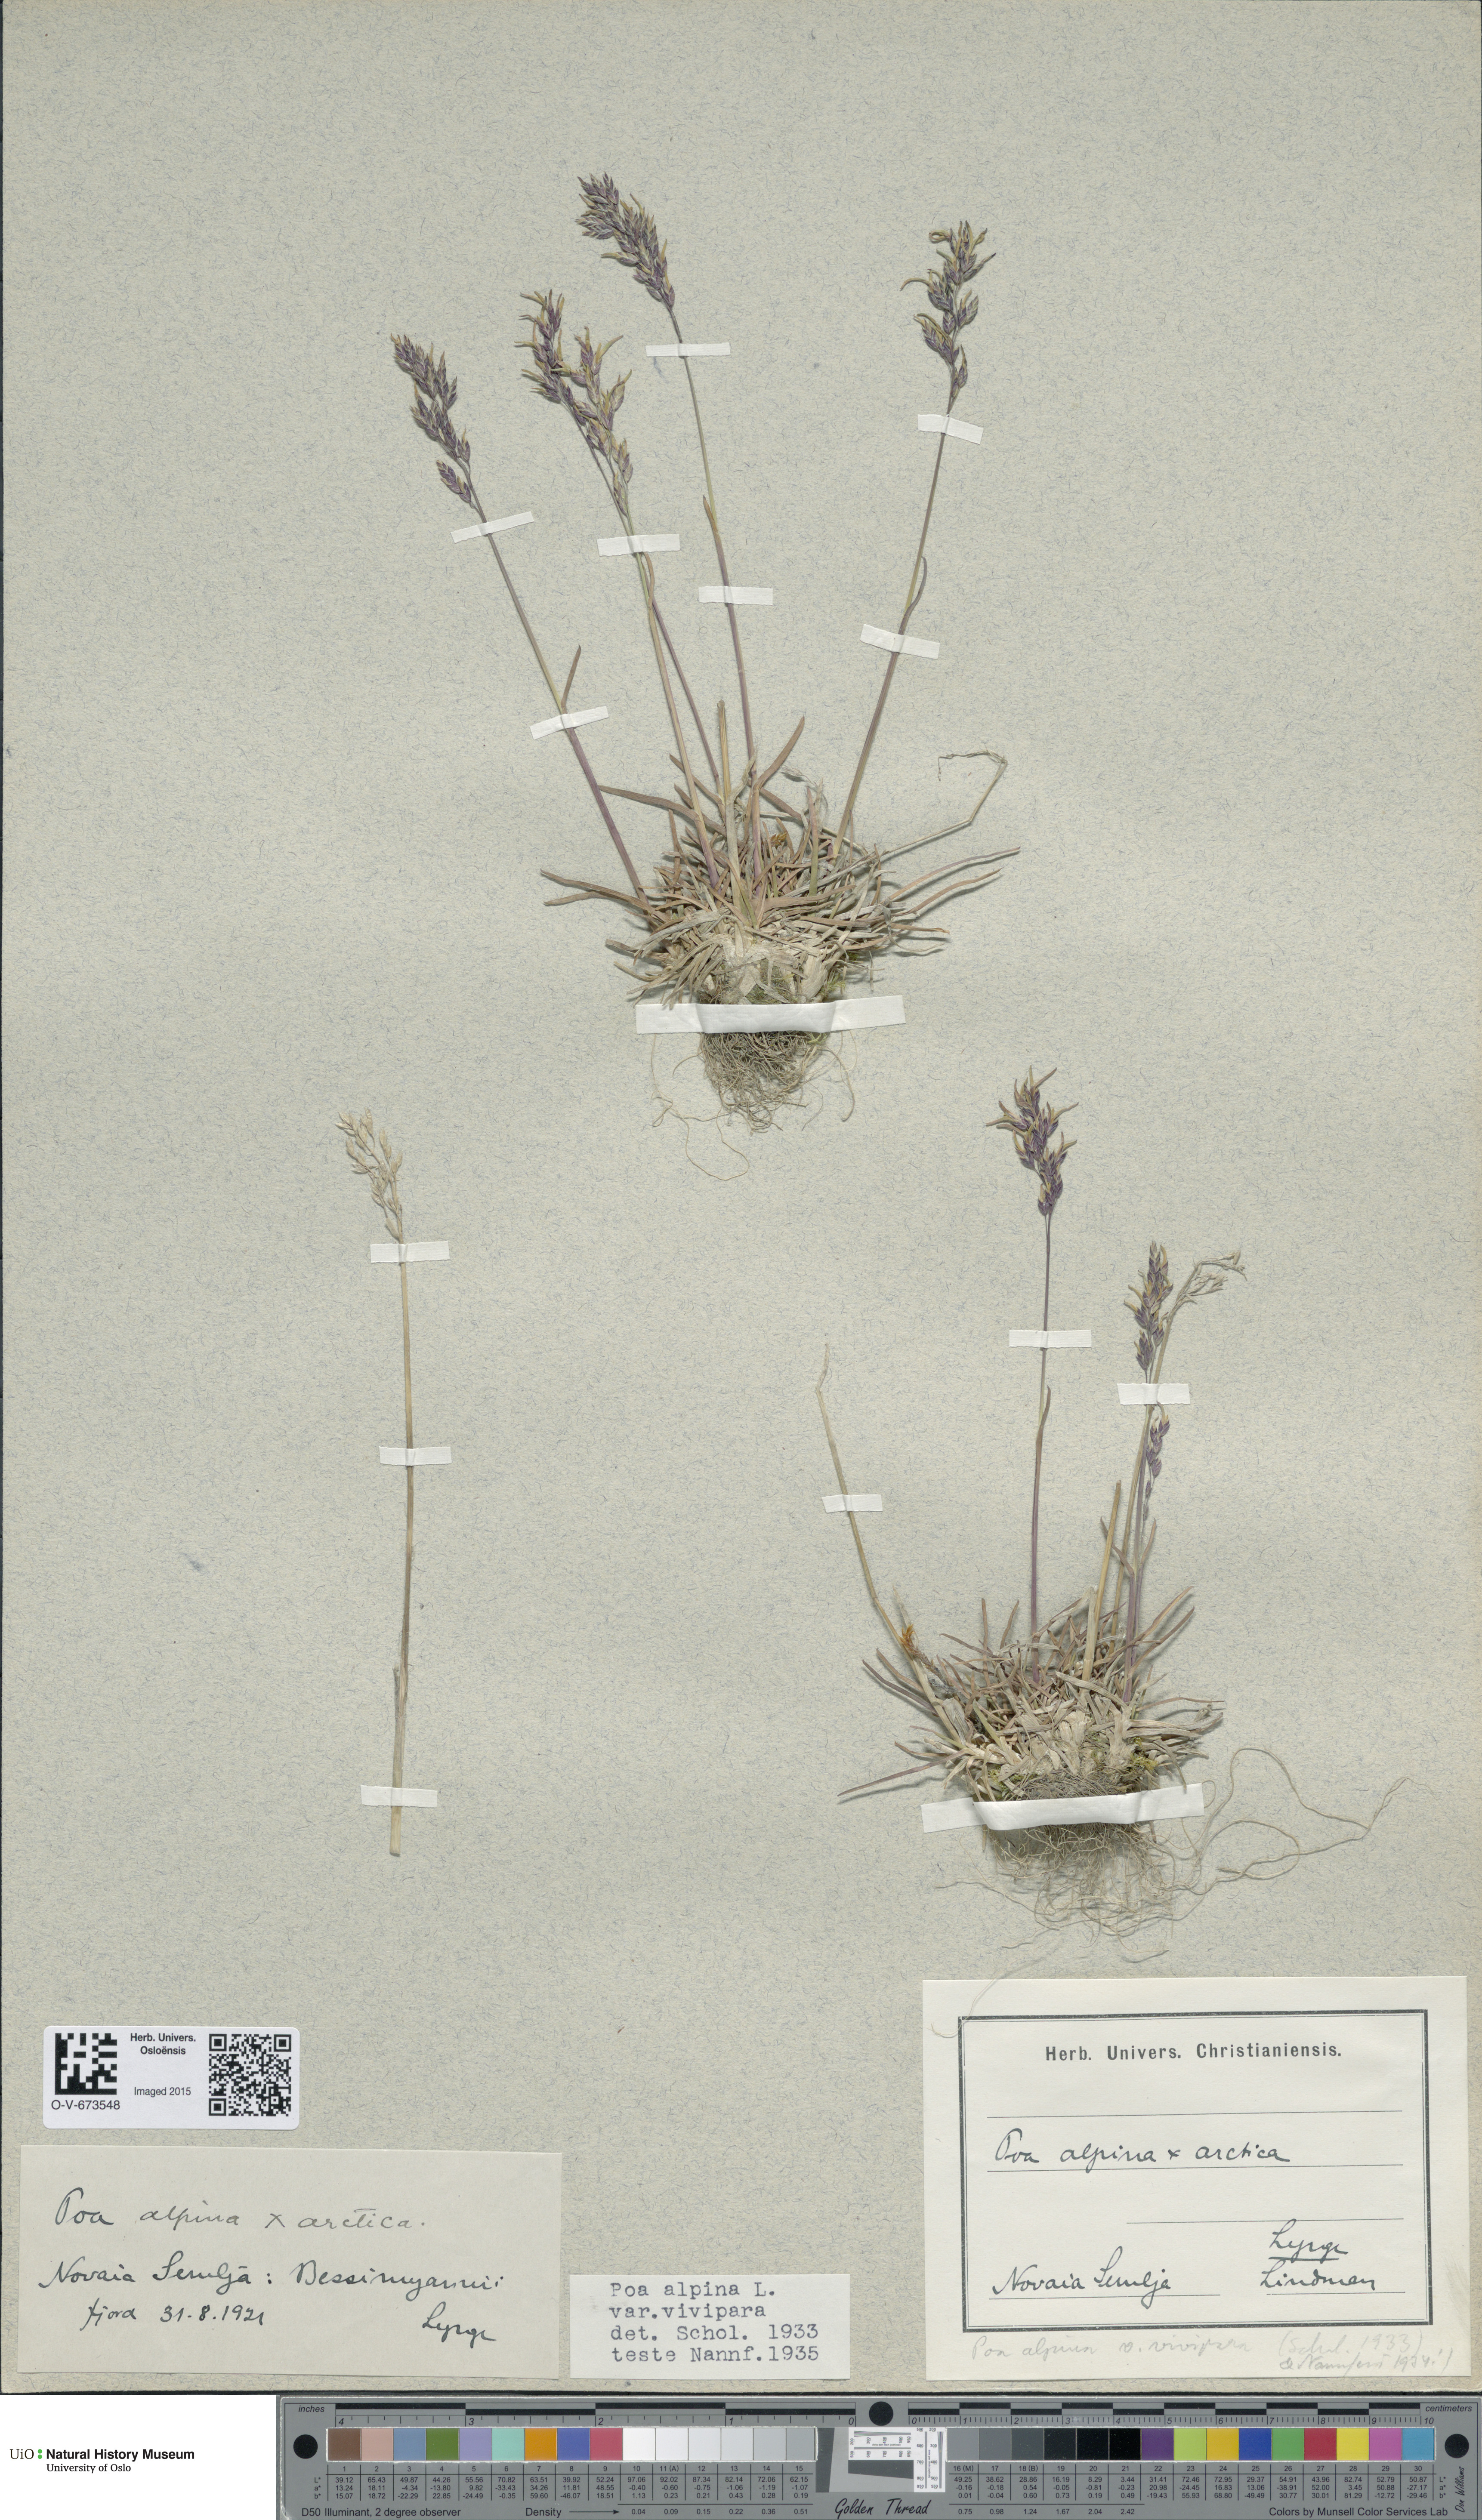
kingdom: Plantae
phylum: Tracheophyta
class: Liliopsida
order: Poales
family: Poaceae
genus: Poa
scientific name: Poa alpina
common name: Alpine bluegrass
